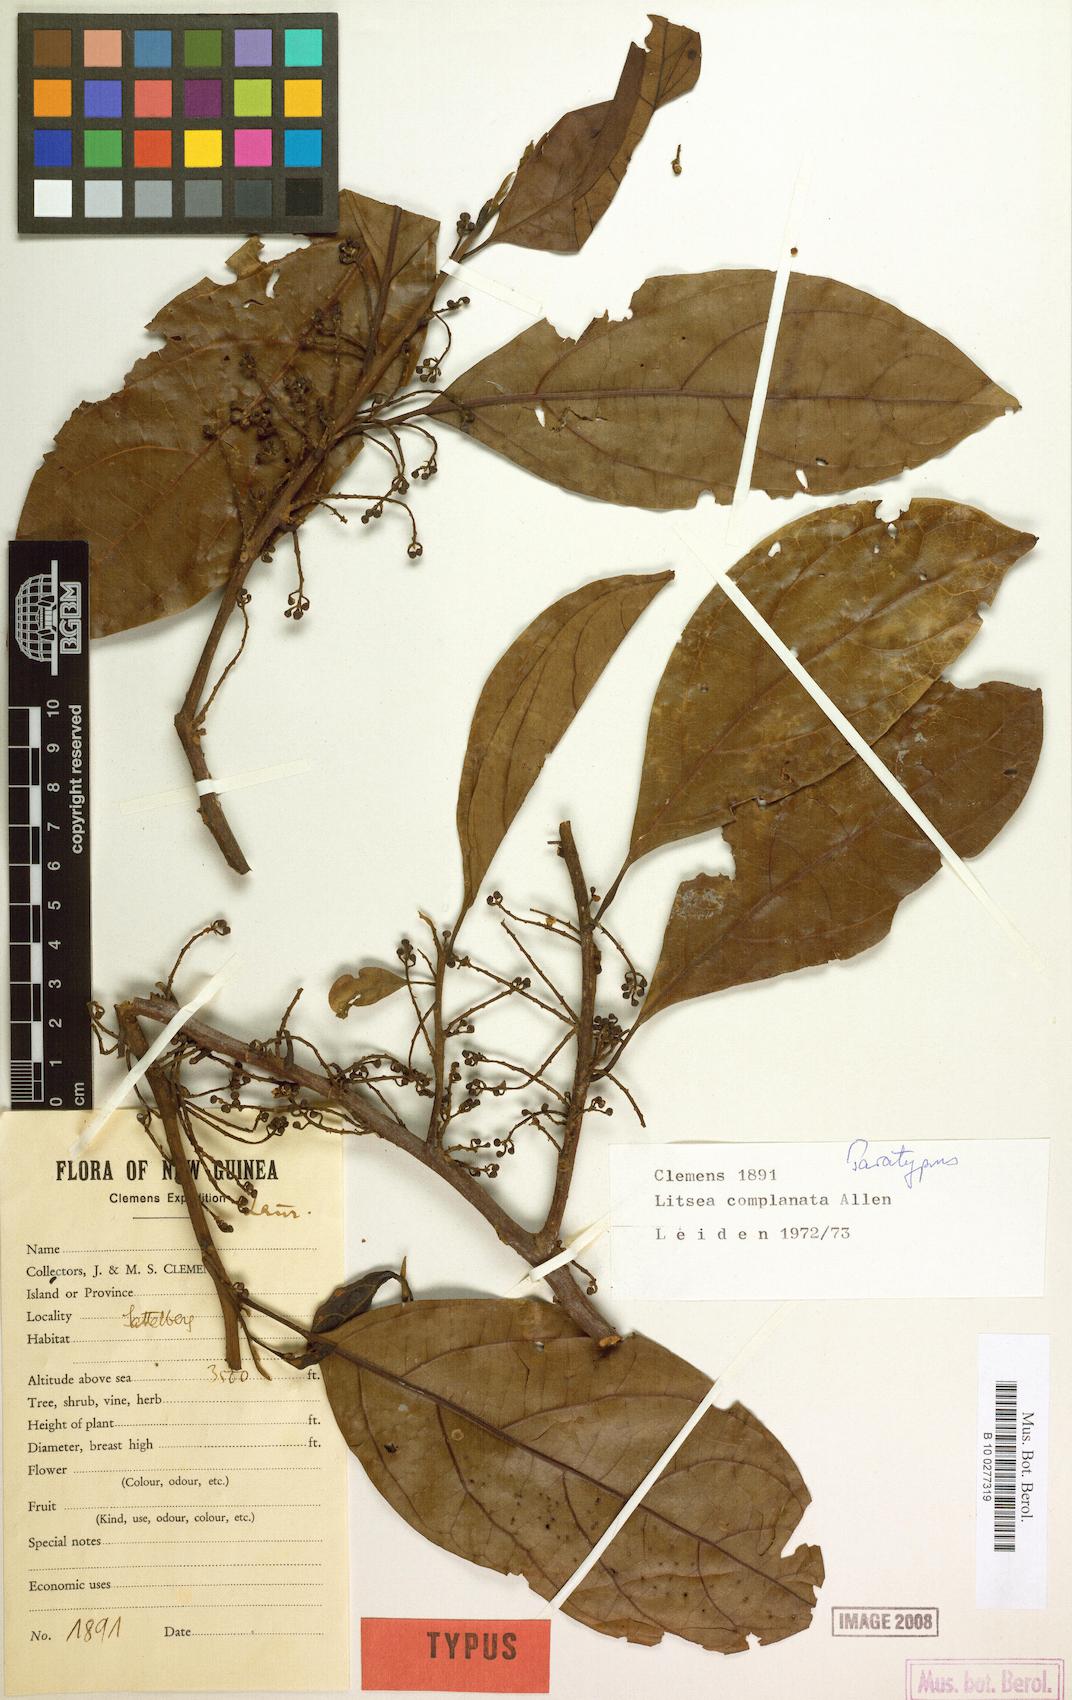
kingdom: Plantae
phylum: Tracheophyta
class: Magnoliopsida
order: Laurales
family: Lauraceae
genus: Litsea
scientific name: Litsea complanata
